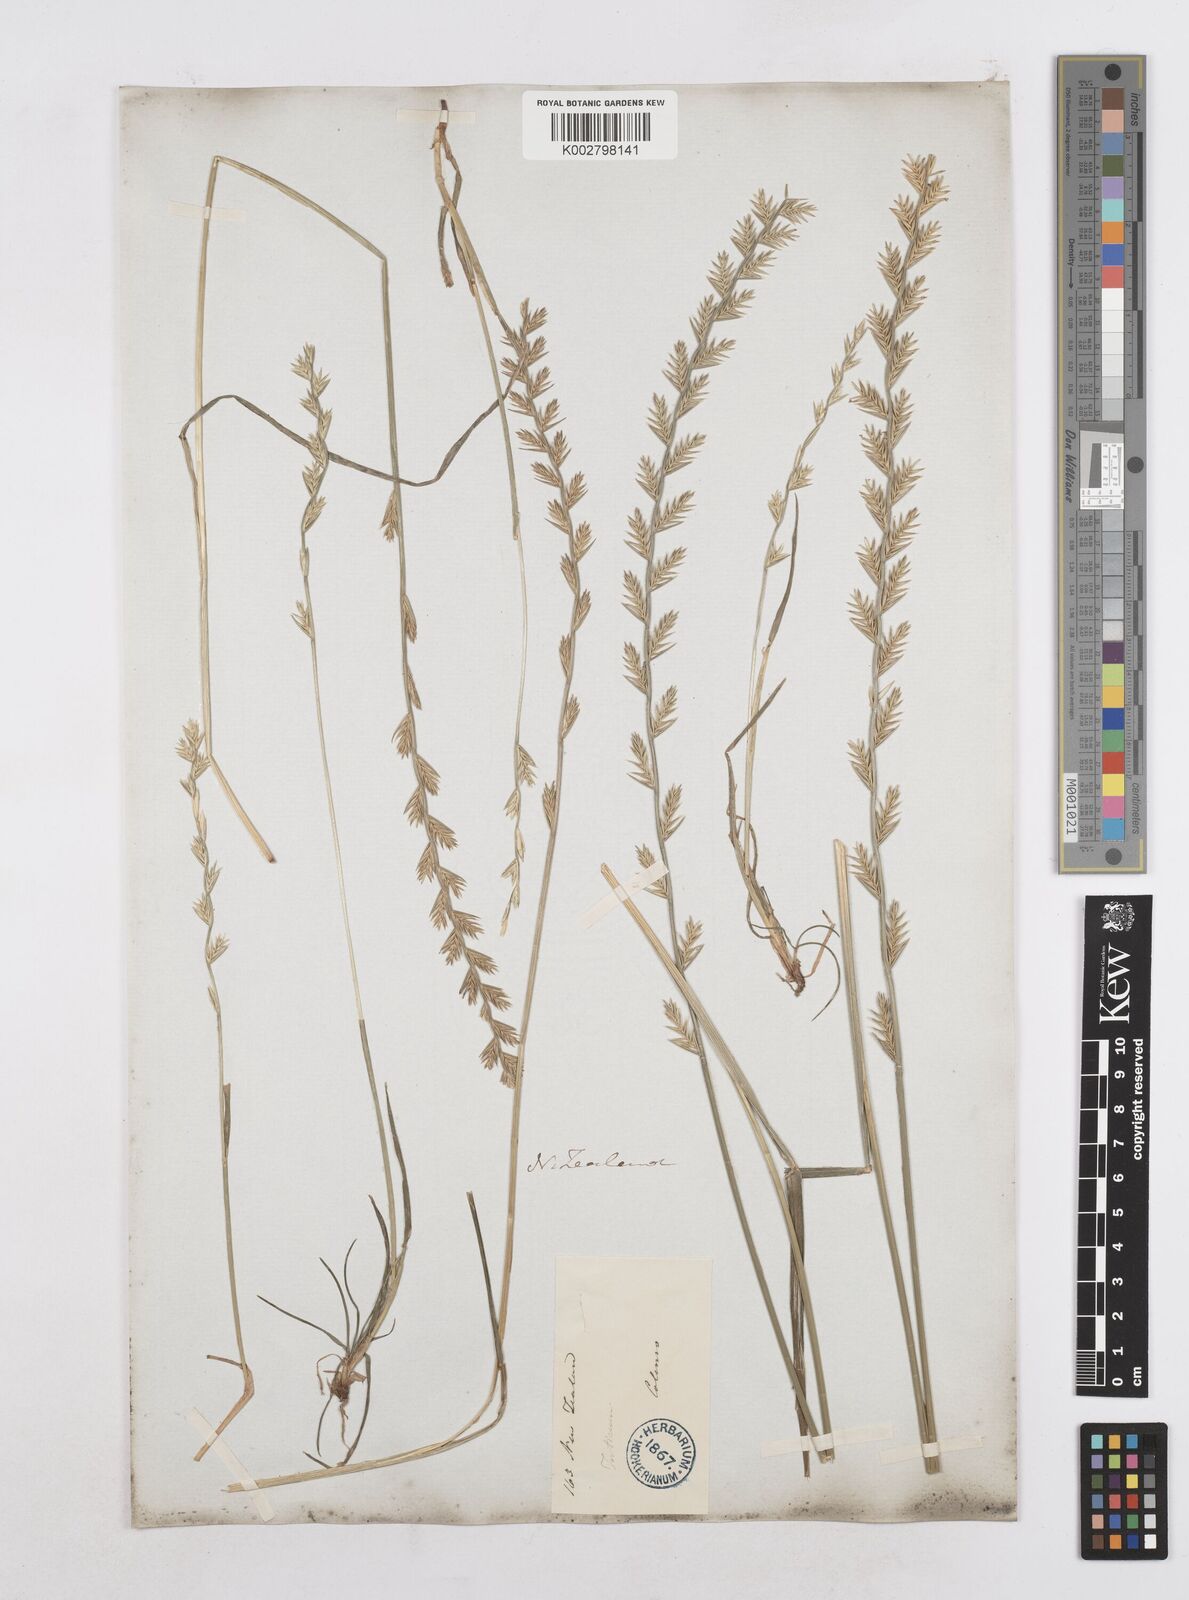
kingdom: Plantae
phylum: Tracheophyta
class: Liliopsida
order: Poales
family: Poaceae
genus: Lolium
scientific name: Lolium perenne
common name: Perennial ryegrass
